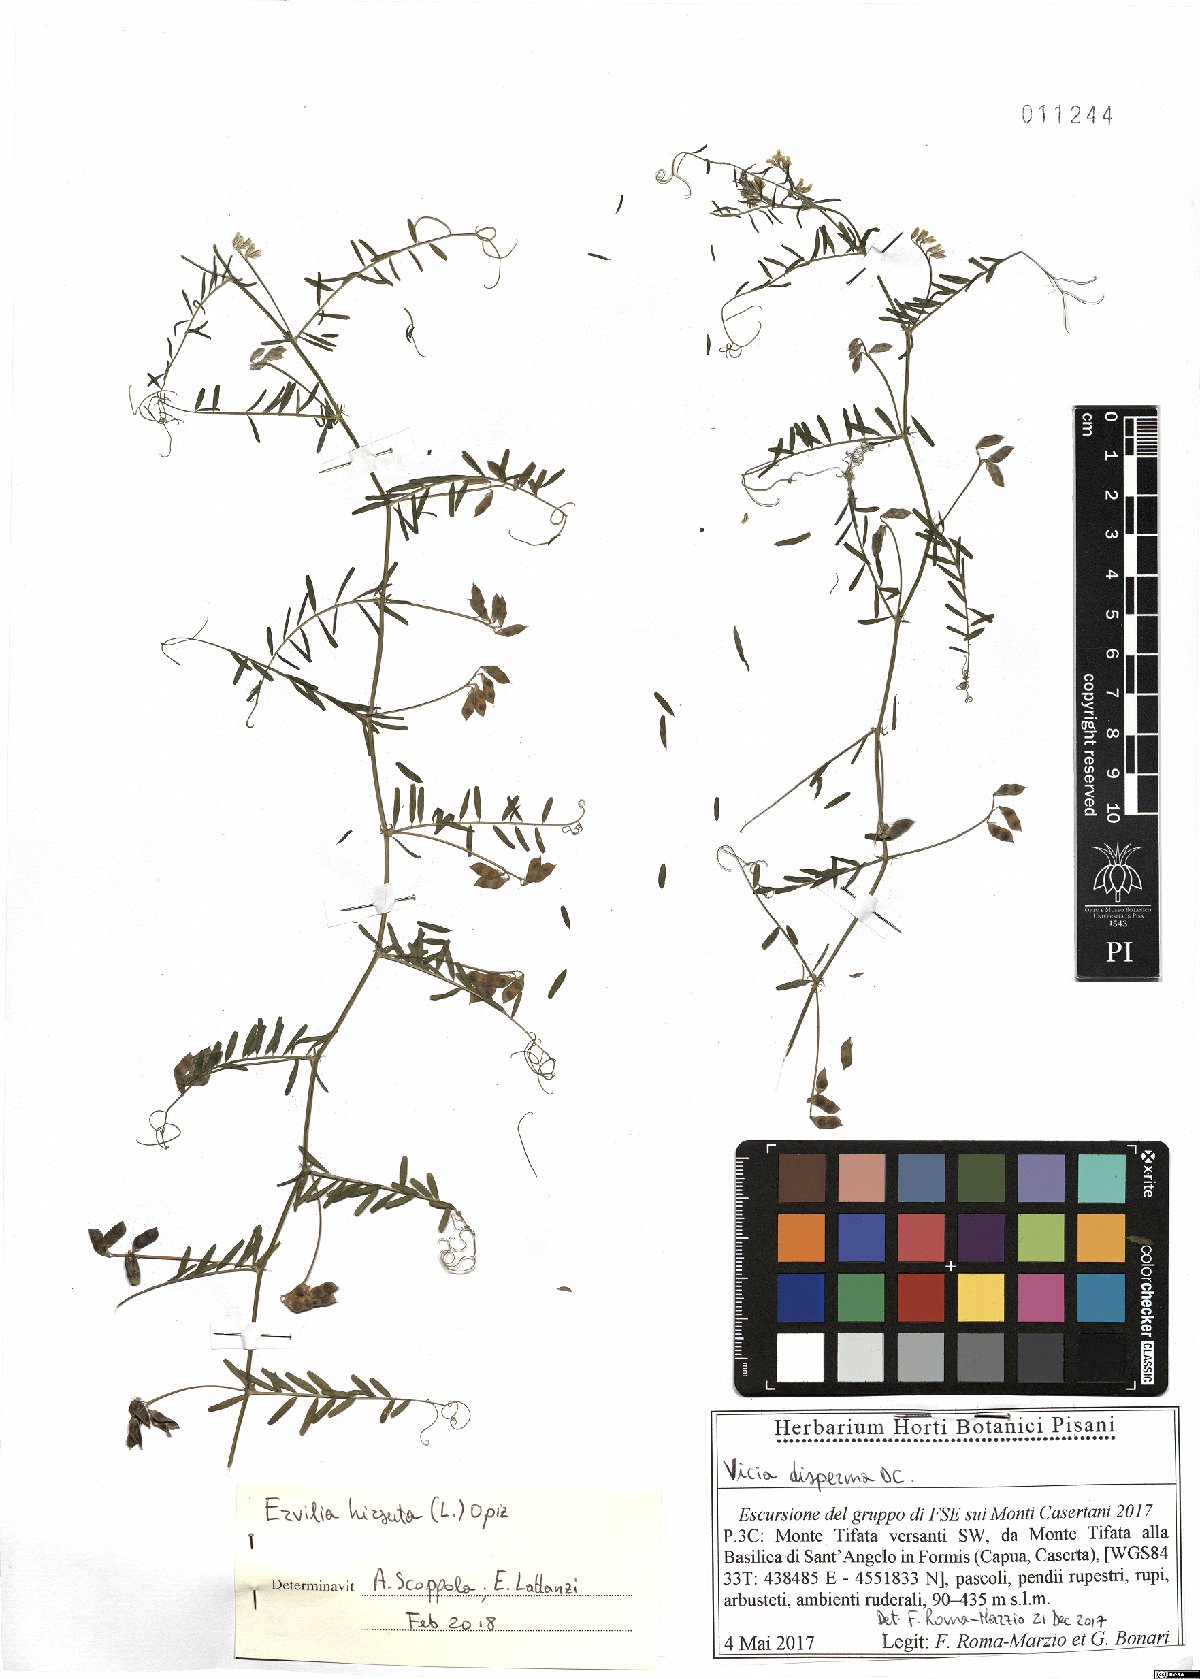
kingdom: Plantae
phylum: Tracheophyta
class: Magnoliopsida
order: Fabales
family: Fabaceae
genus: Vicia
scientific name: Vicia hirsuta
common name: Tiny vetch
